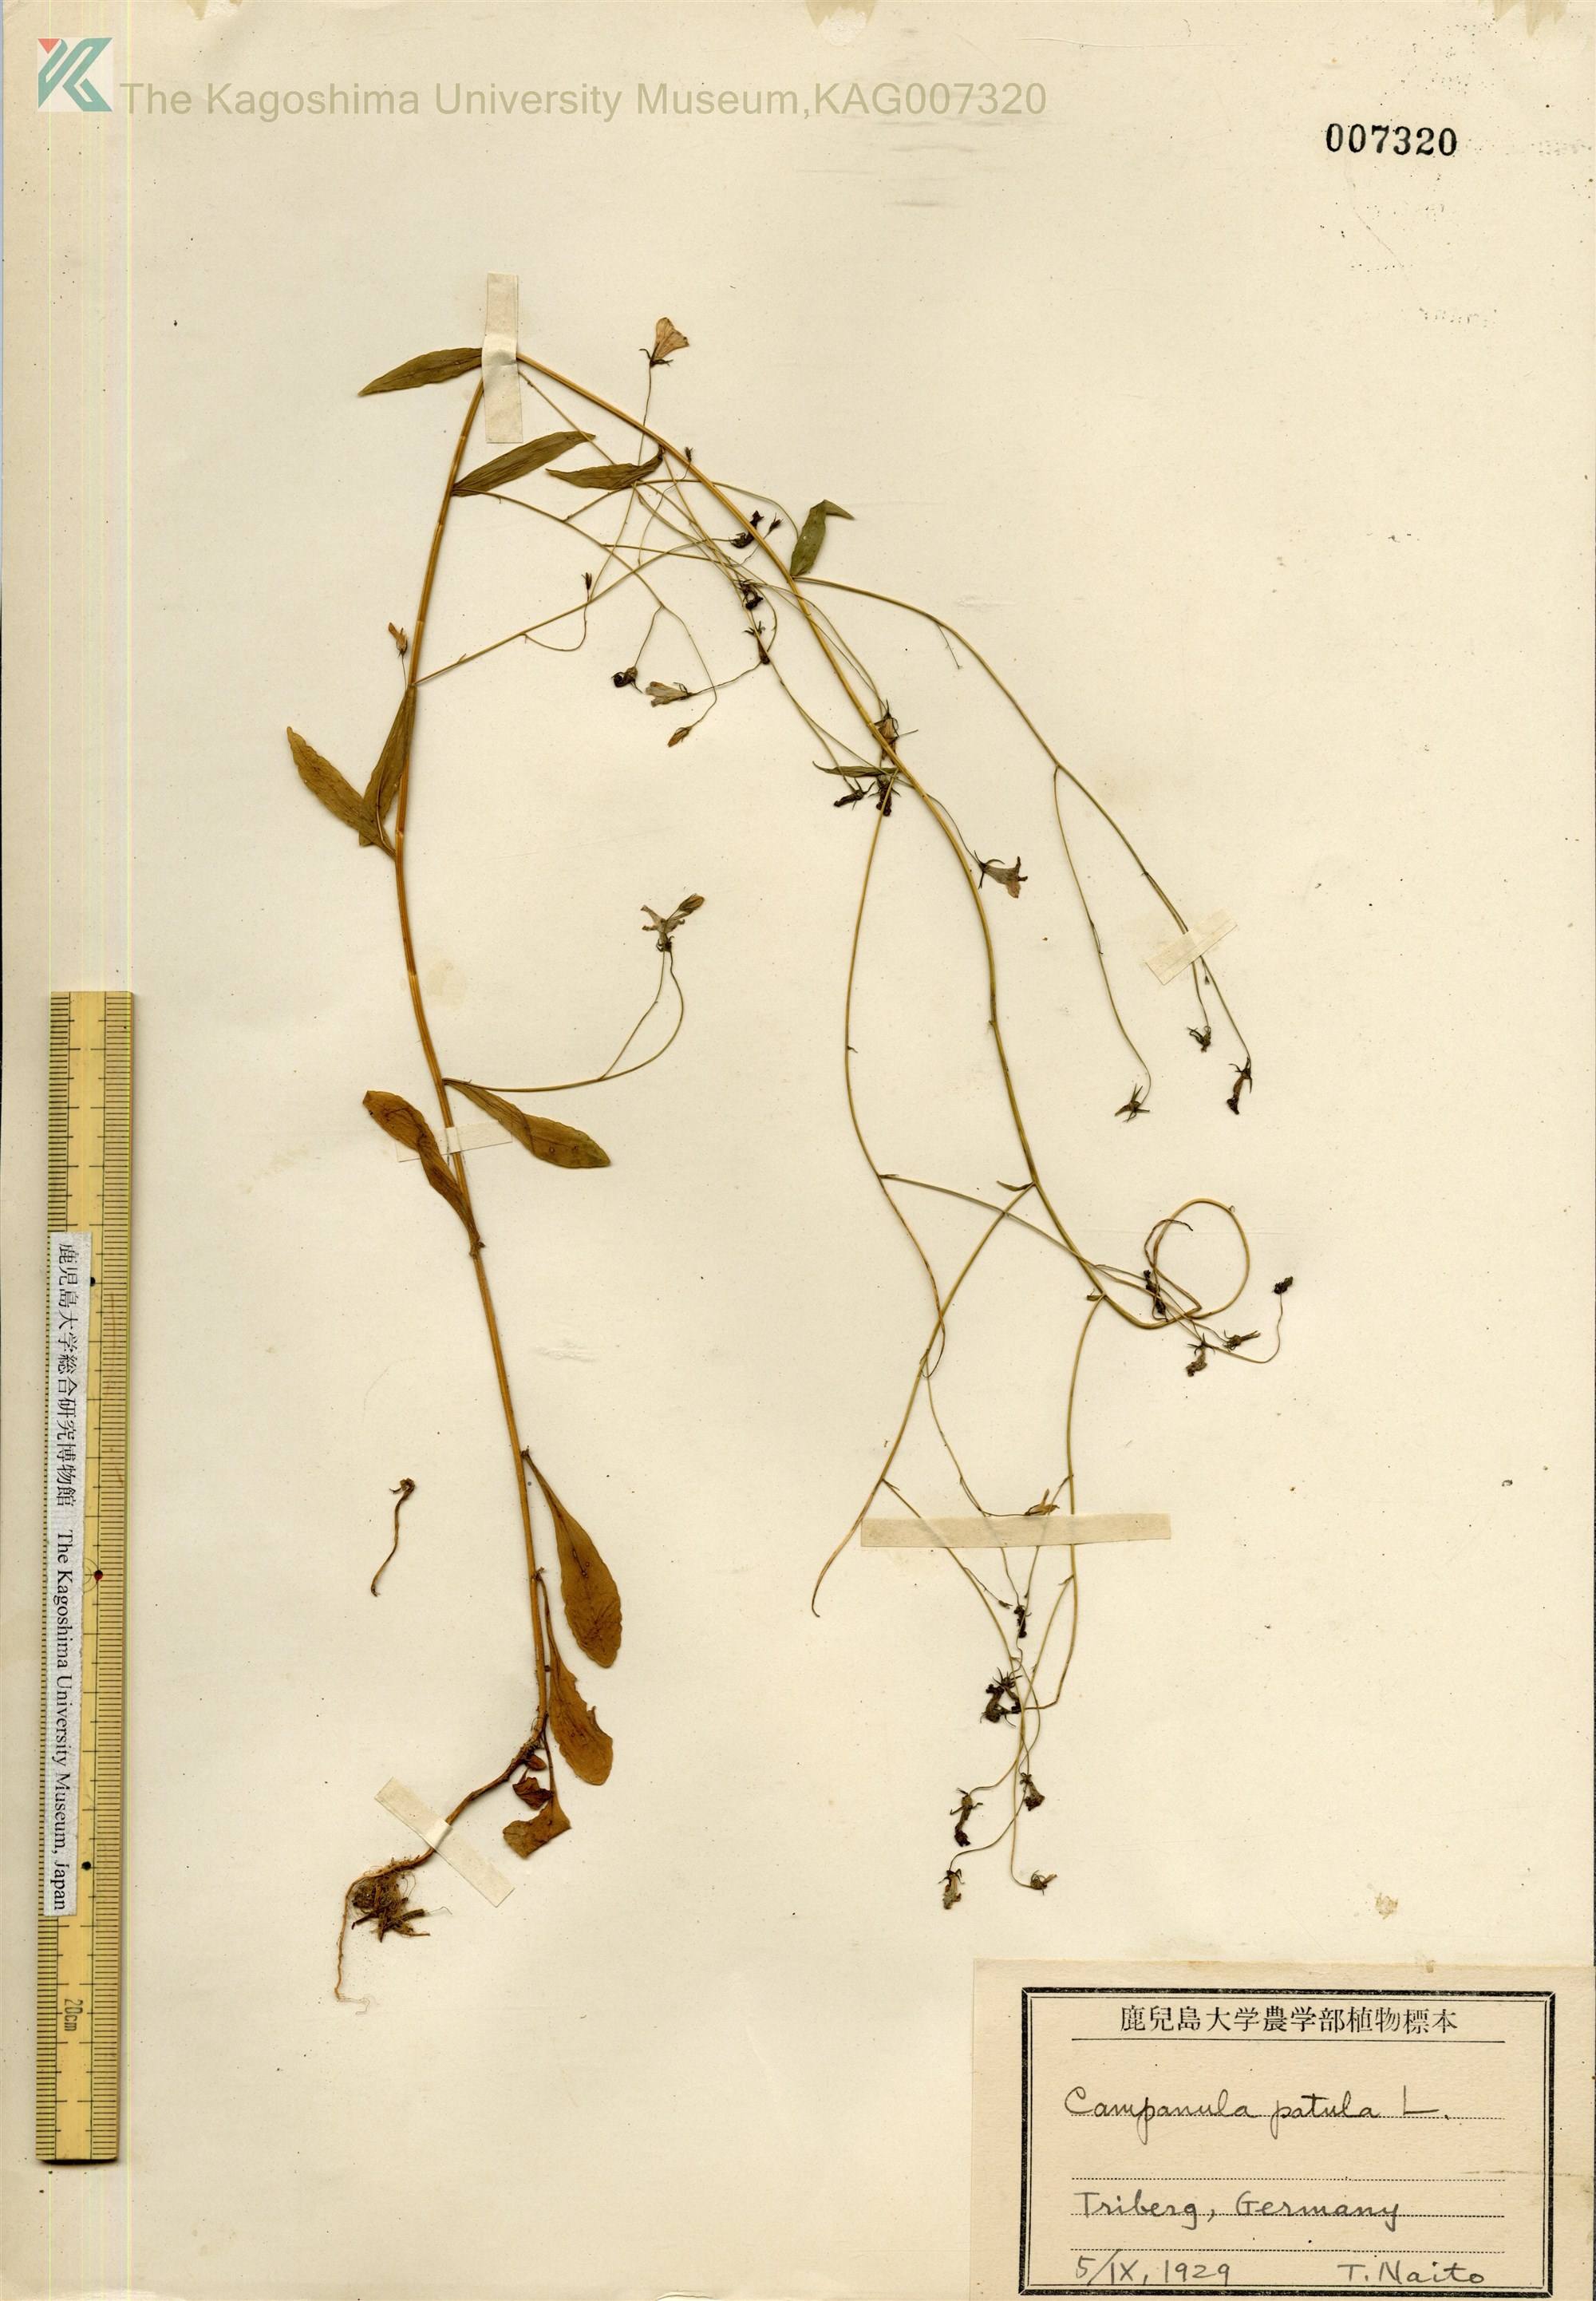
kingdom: Plantae
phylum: Tracheophyta
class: Magnoliopsida
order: Asterales
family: Campanulaceae
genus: Campanula
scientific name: Campanula patula
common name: Spreading bellflower
